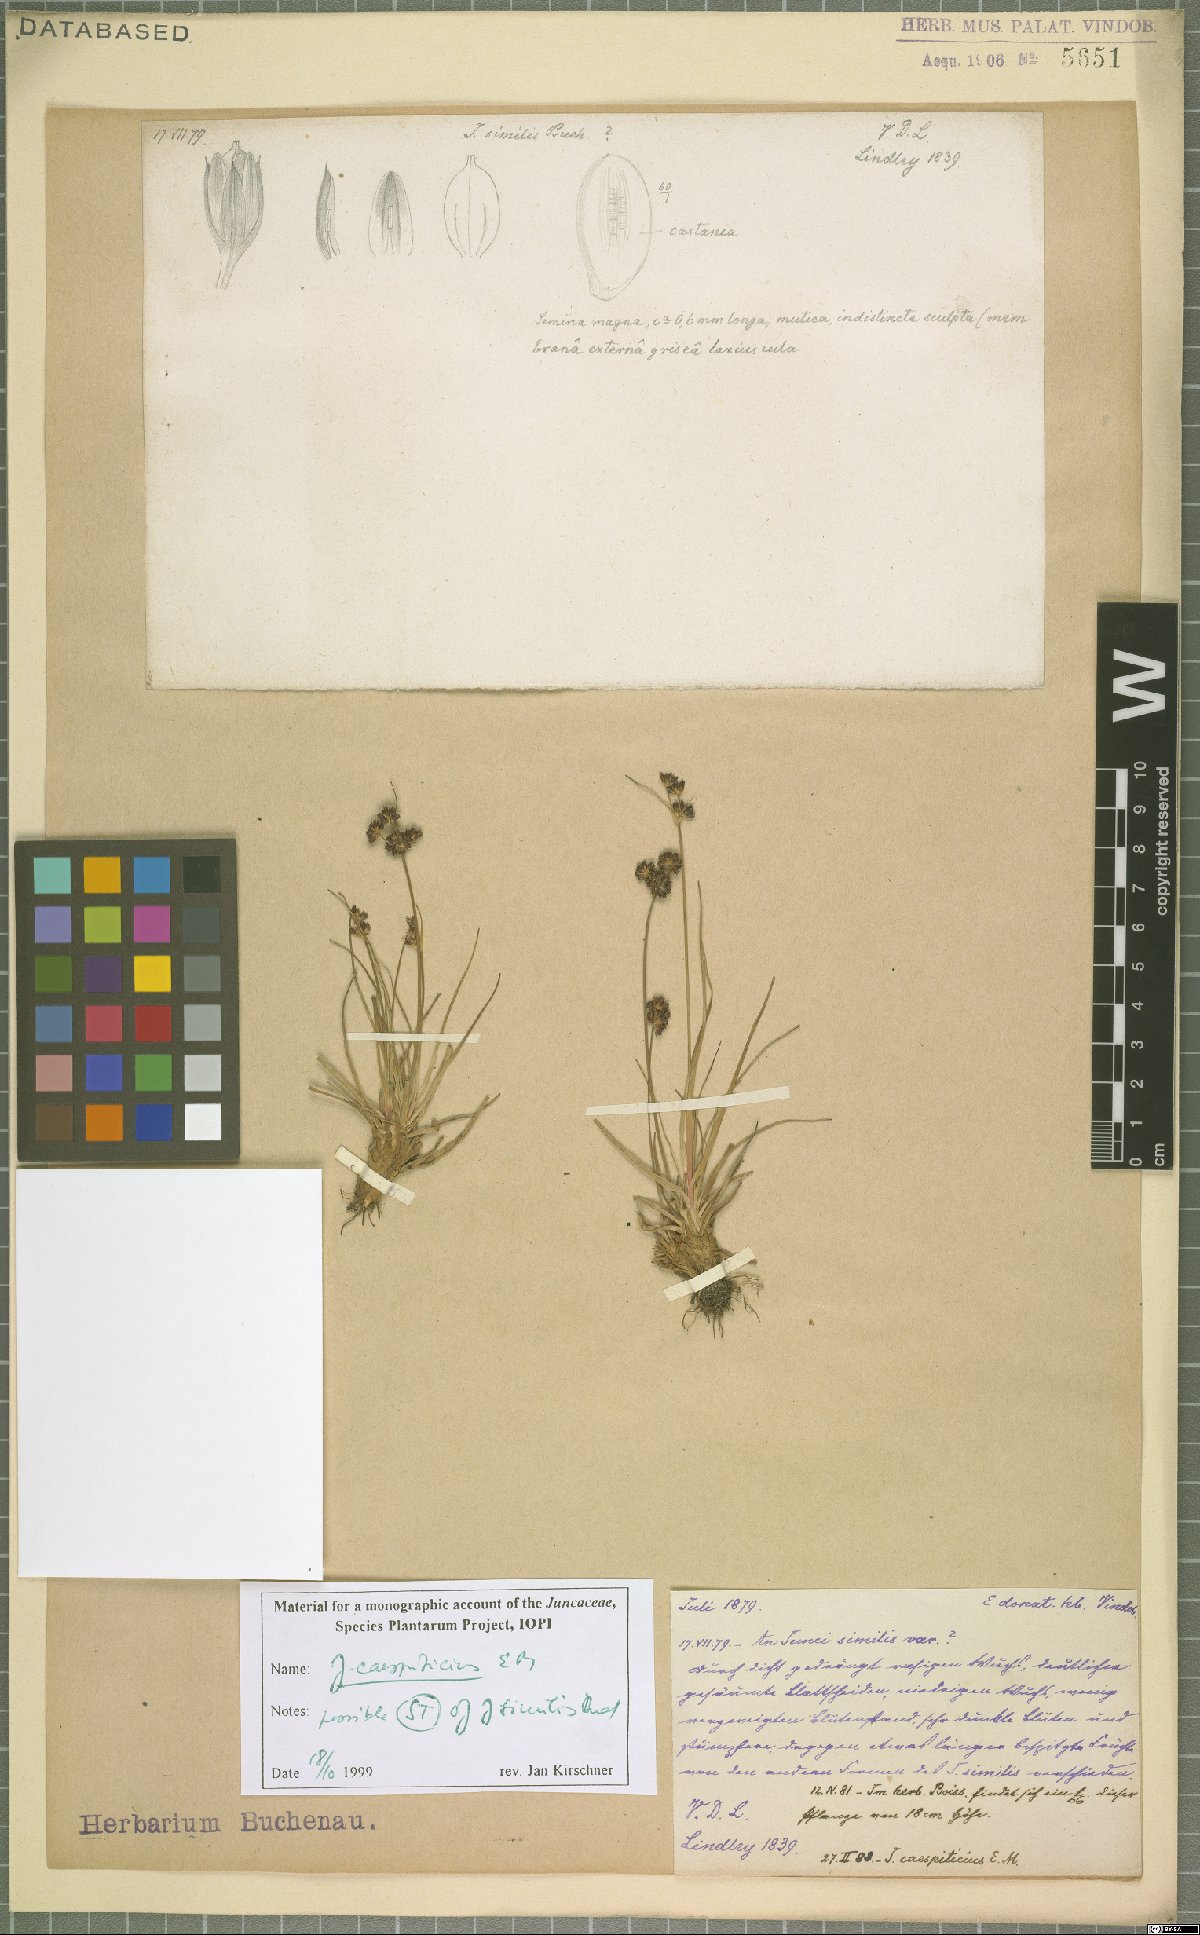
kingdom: Plantae
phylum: Tracheophyta
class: Liliopsida
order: Poales
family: Juncaceae
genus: Juncus
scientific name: Juncus caespiticius
